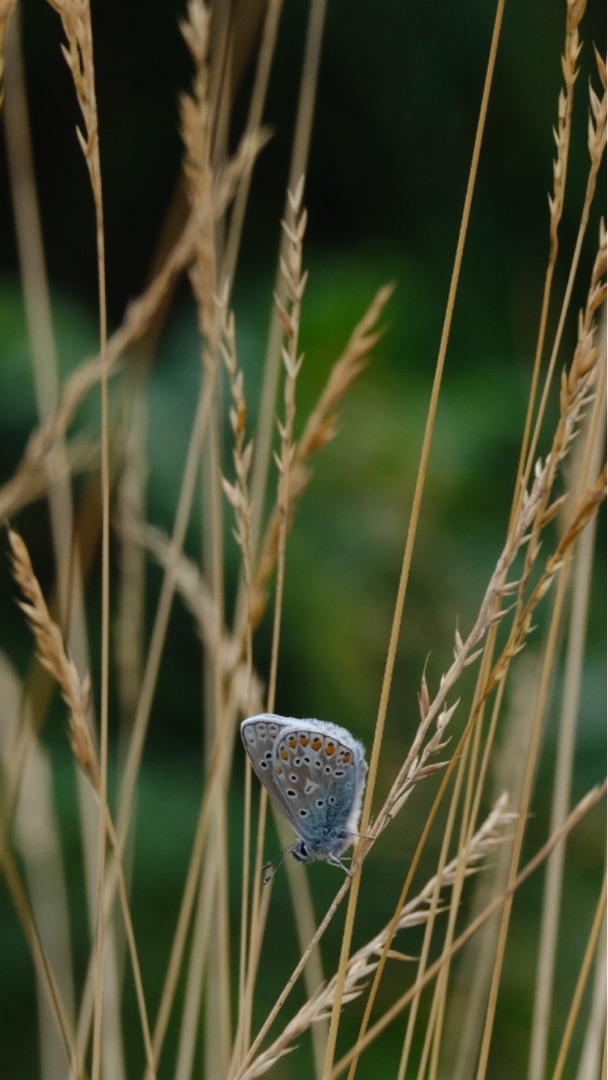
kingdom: Animalia
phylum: Arthropoda
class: Insecta
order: Lepidoptera
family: Lycaenidae
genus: Polyommatus
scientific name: Polyommatus icarus
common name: Almindelig blåfugl
